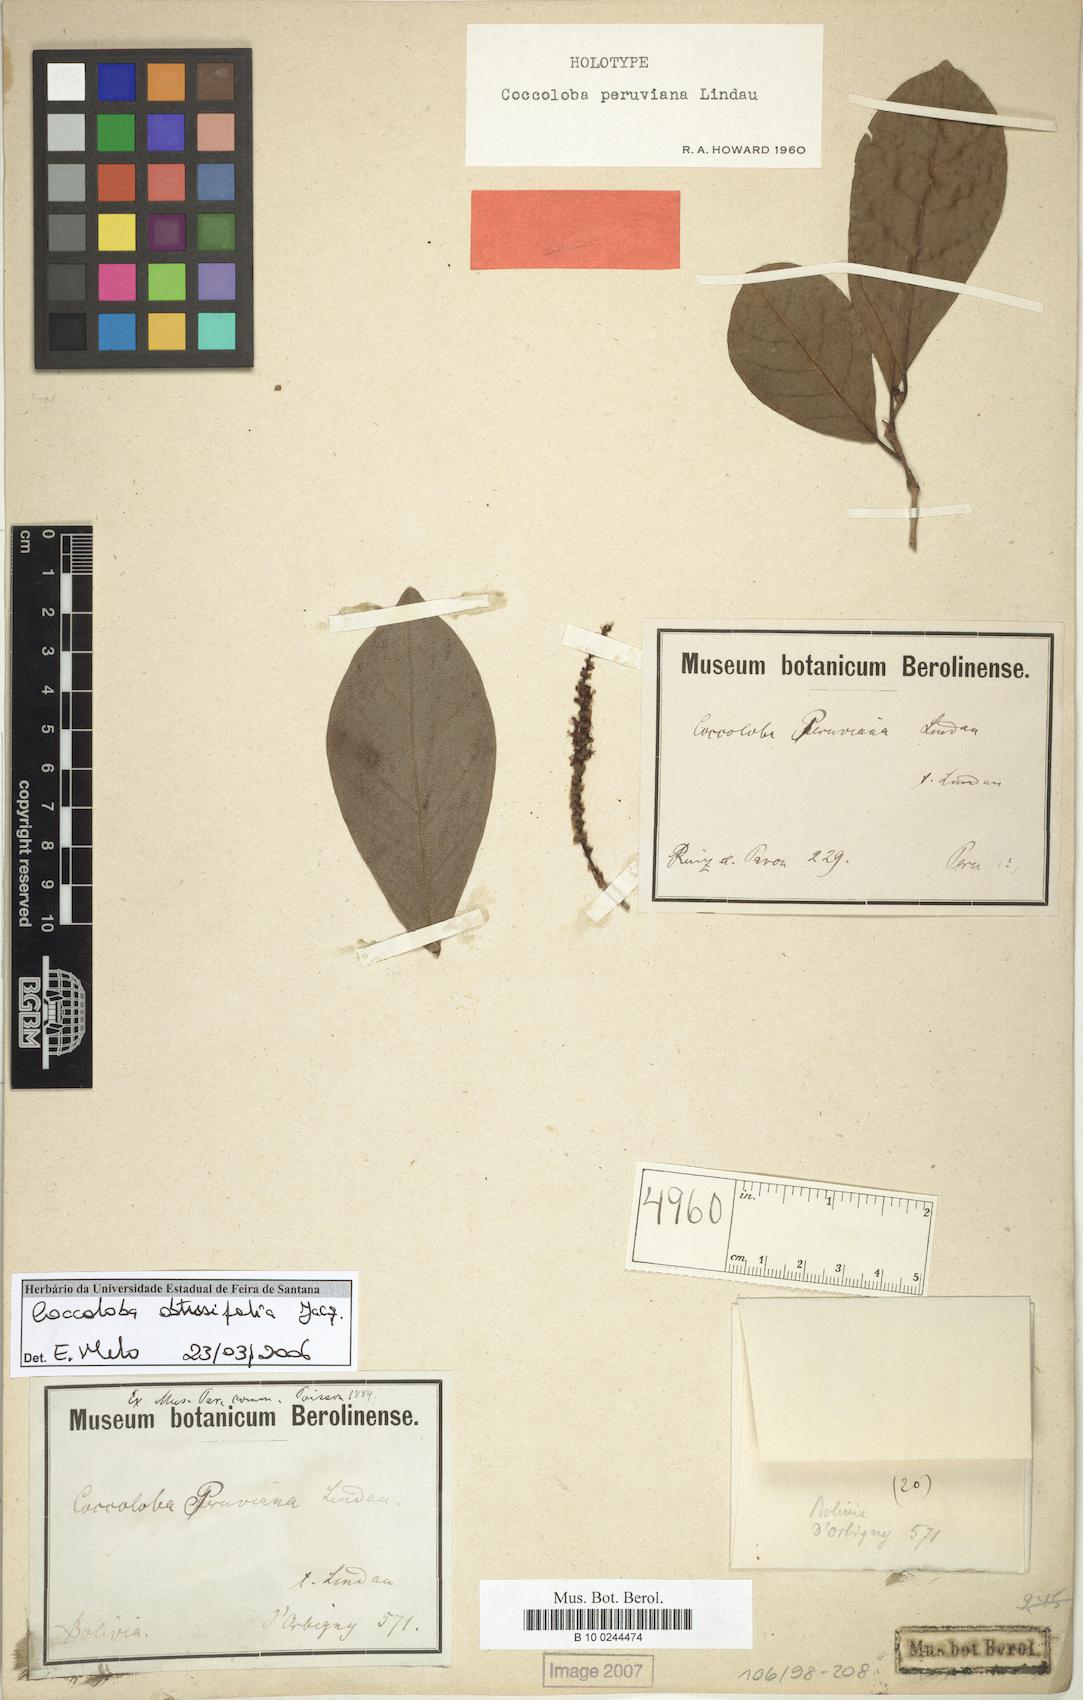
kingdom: Plantae
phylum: Tracheophyta
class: Magnoliopsida
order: Caryophyllales
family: Polygonaceae
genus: Coccoloba
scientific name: Coccoloba obtusifolia
